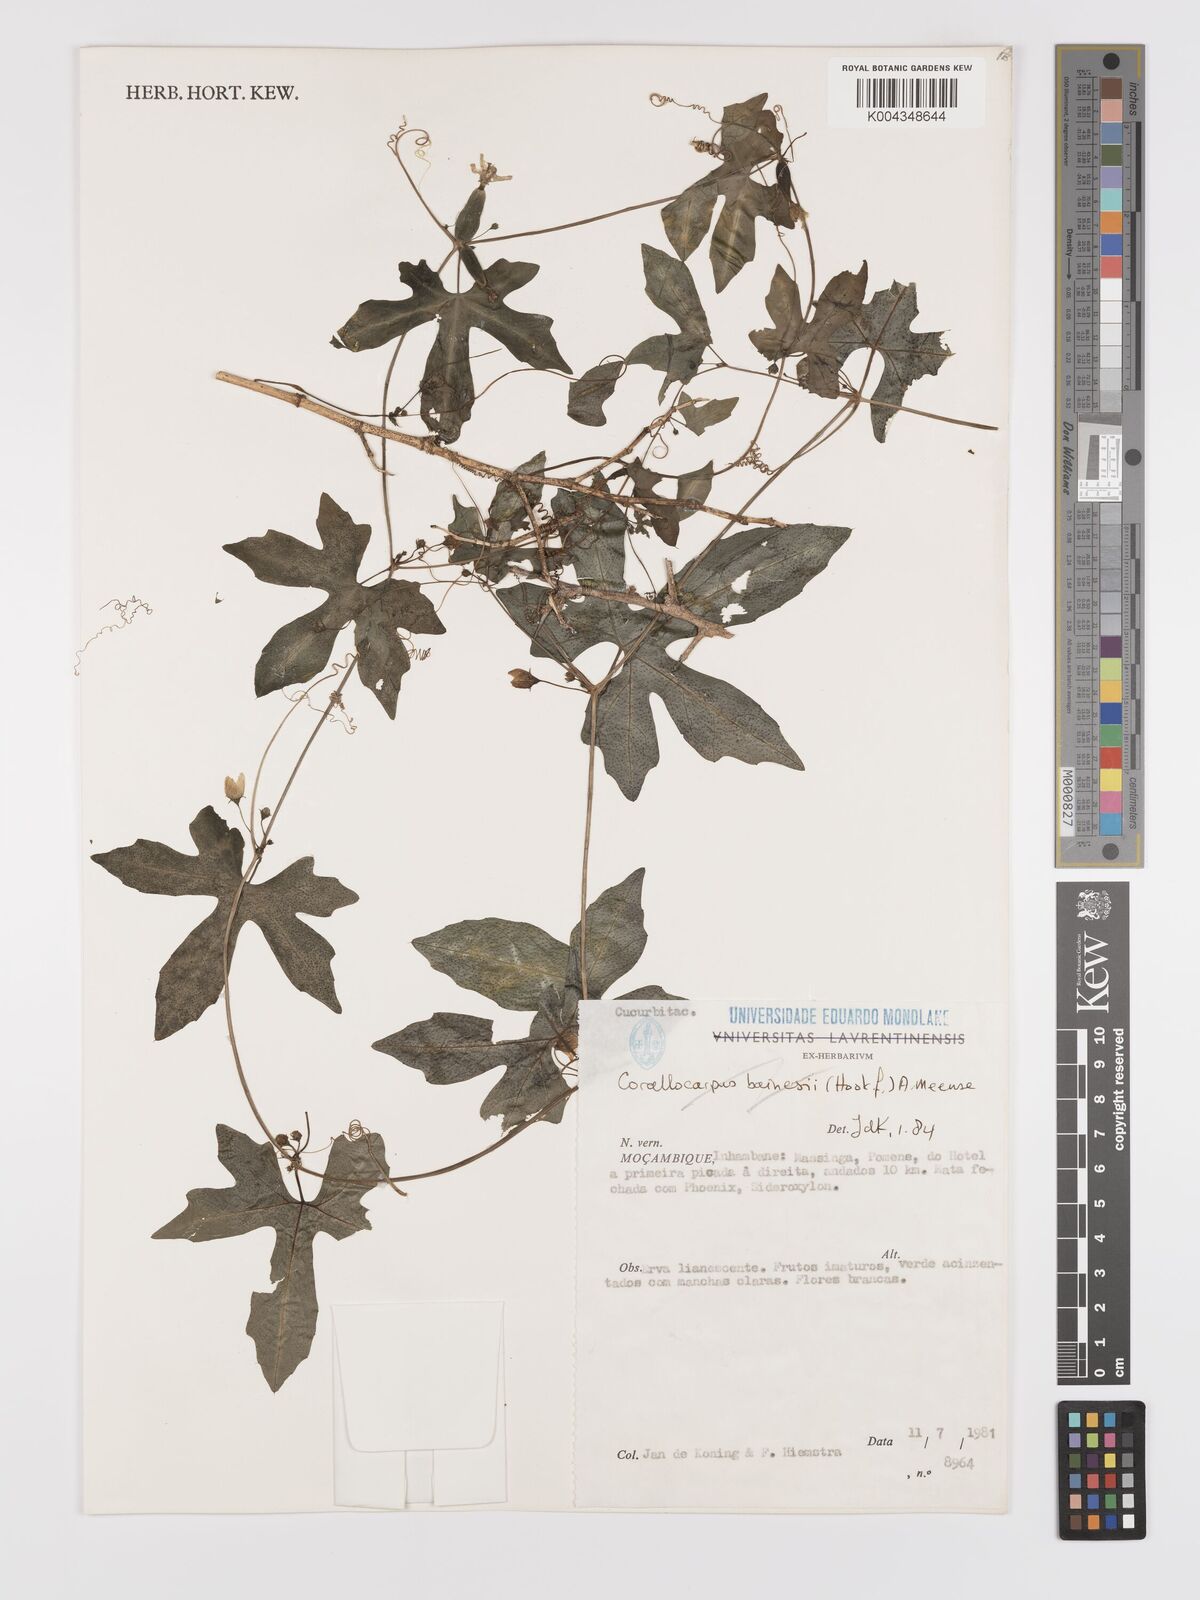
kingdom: Plantae
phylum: Tracheophyta
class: Magnoliopsida
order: Cucurbitales
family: Cucurbitaceae
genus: Diplocyclos
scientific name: Diplocyclos tenuis
